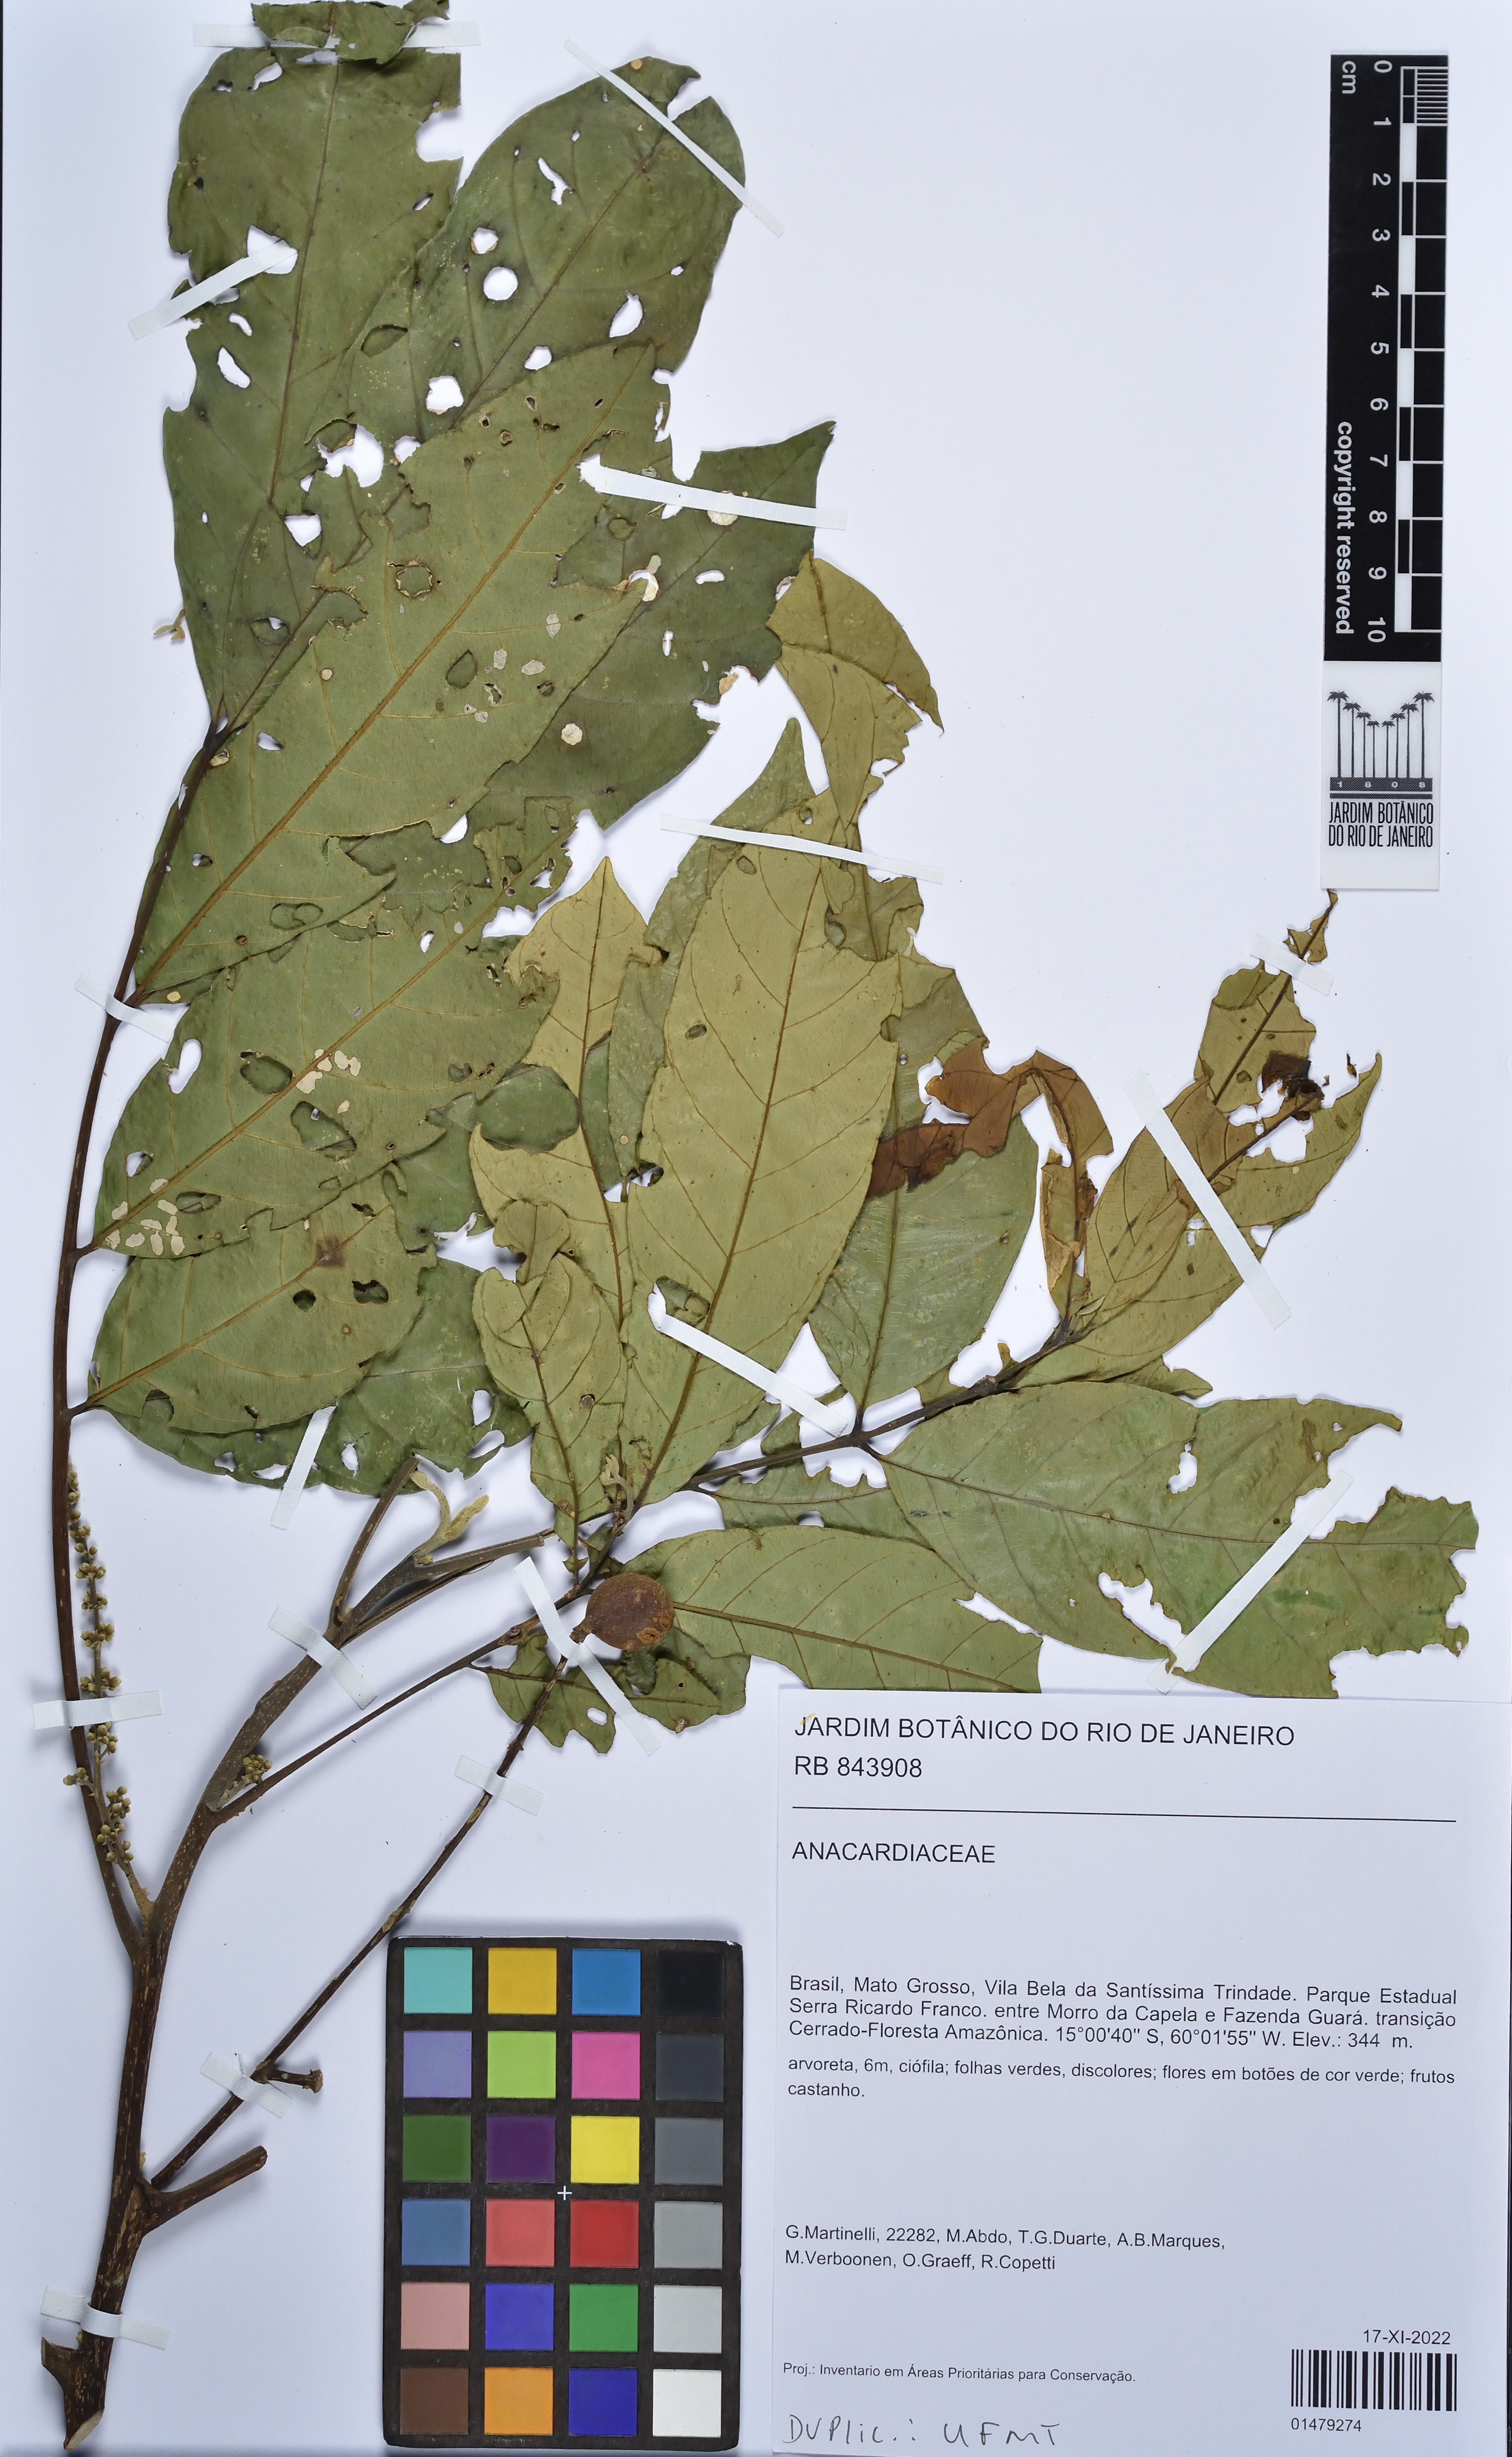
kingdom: Plantae
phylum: Tracheophyta
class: Magnoliopsida
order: Sapindales
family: Anacardiaceae
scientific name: Anacardiaceae
